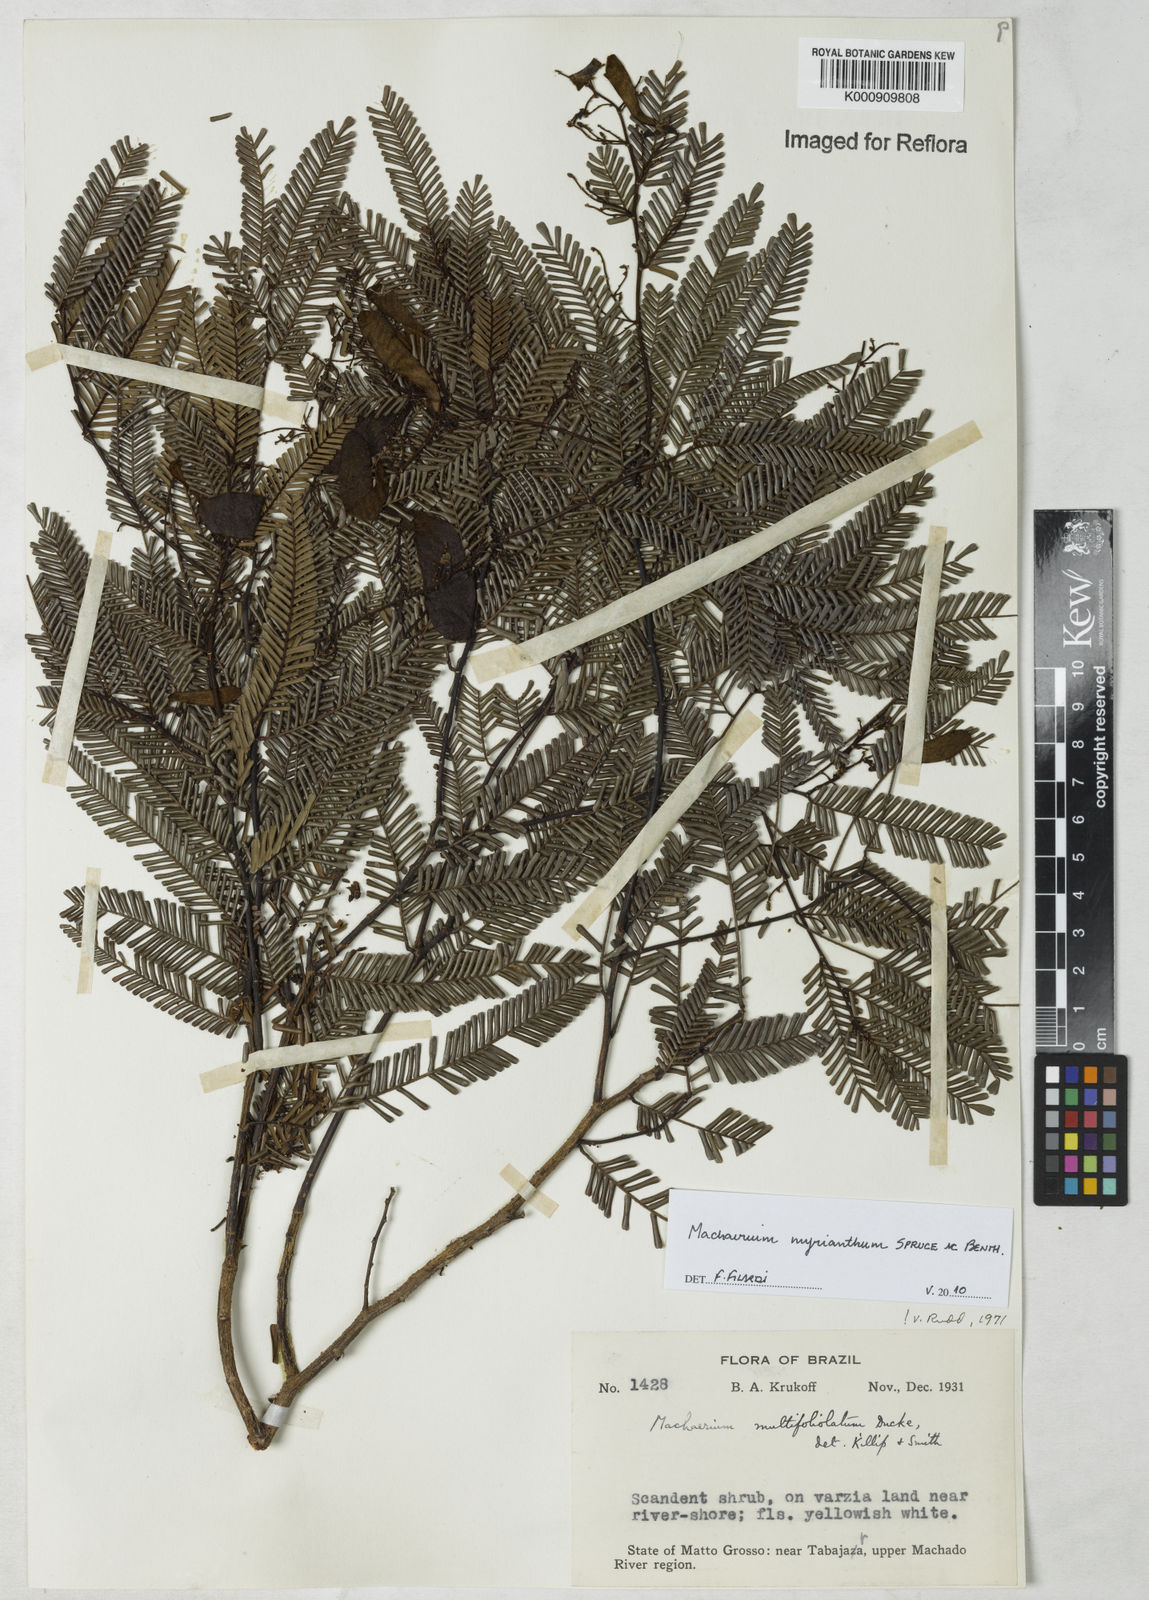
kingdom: Plantae
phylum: Tracheophyta
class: Magnoliopsida
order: Fabales
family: Fabaceae
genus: Machaerium
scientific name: Machaerium multifoliolatum
